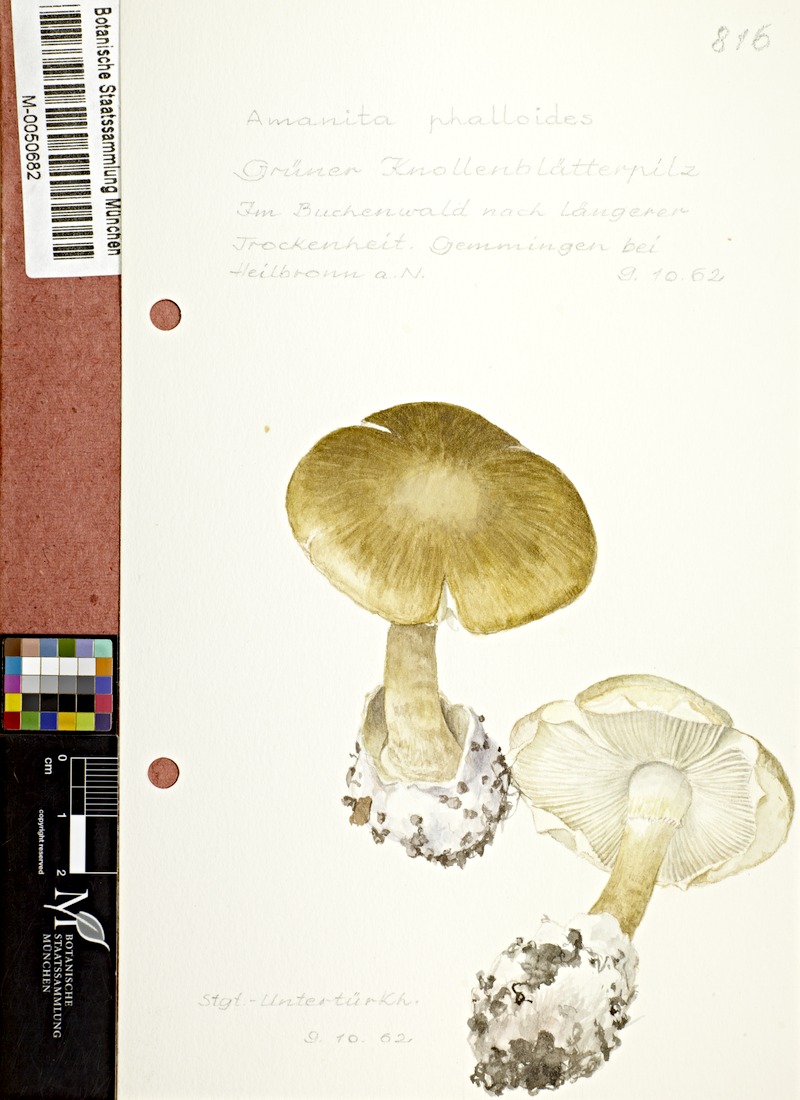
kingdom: Fungi
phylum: Basidiomycota
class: Agaricomycetes
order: Agaricales
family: Amanitaceae
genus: Amanita
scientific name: Amanita phalloides
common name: Death cap
